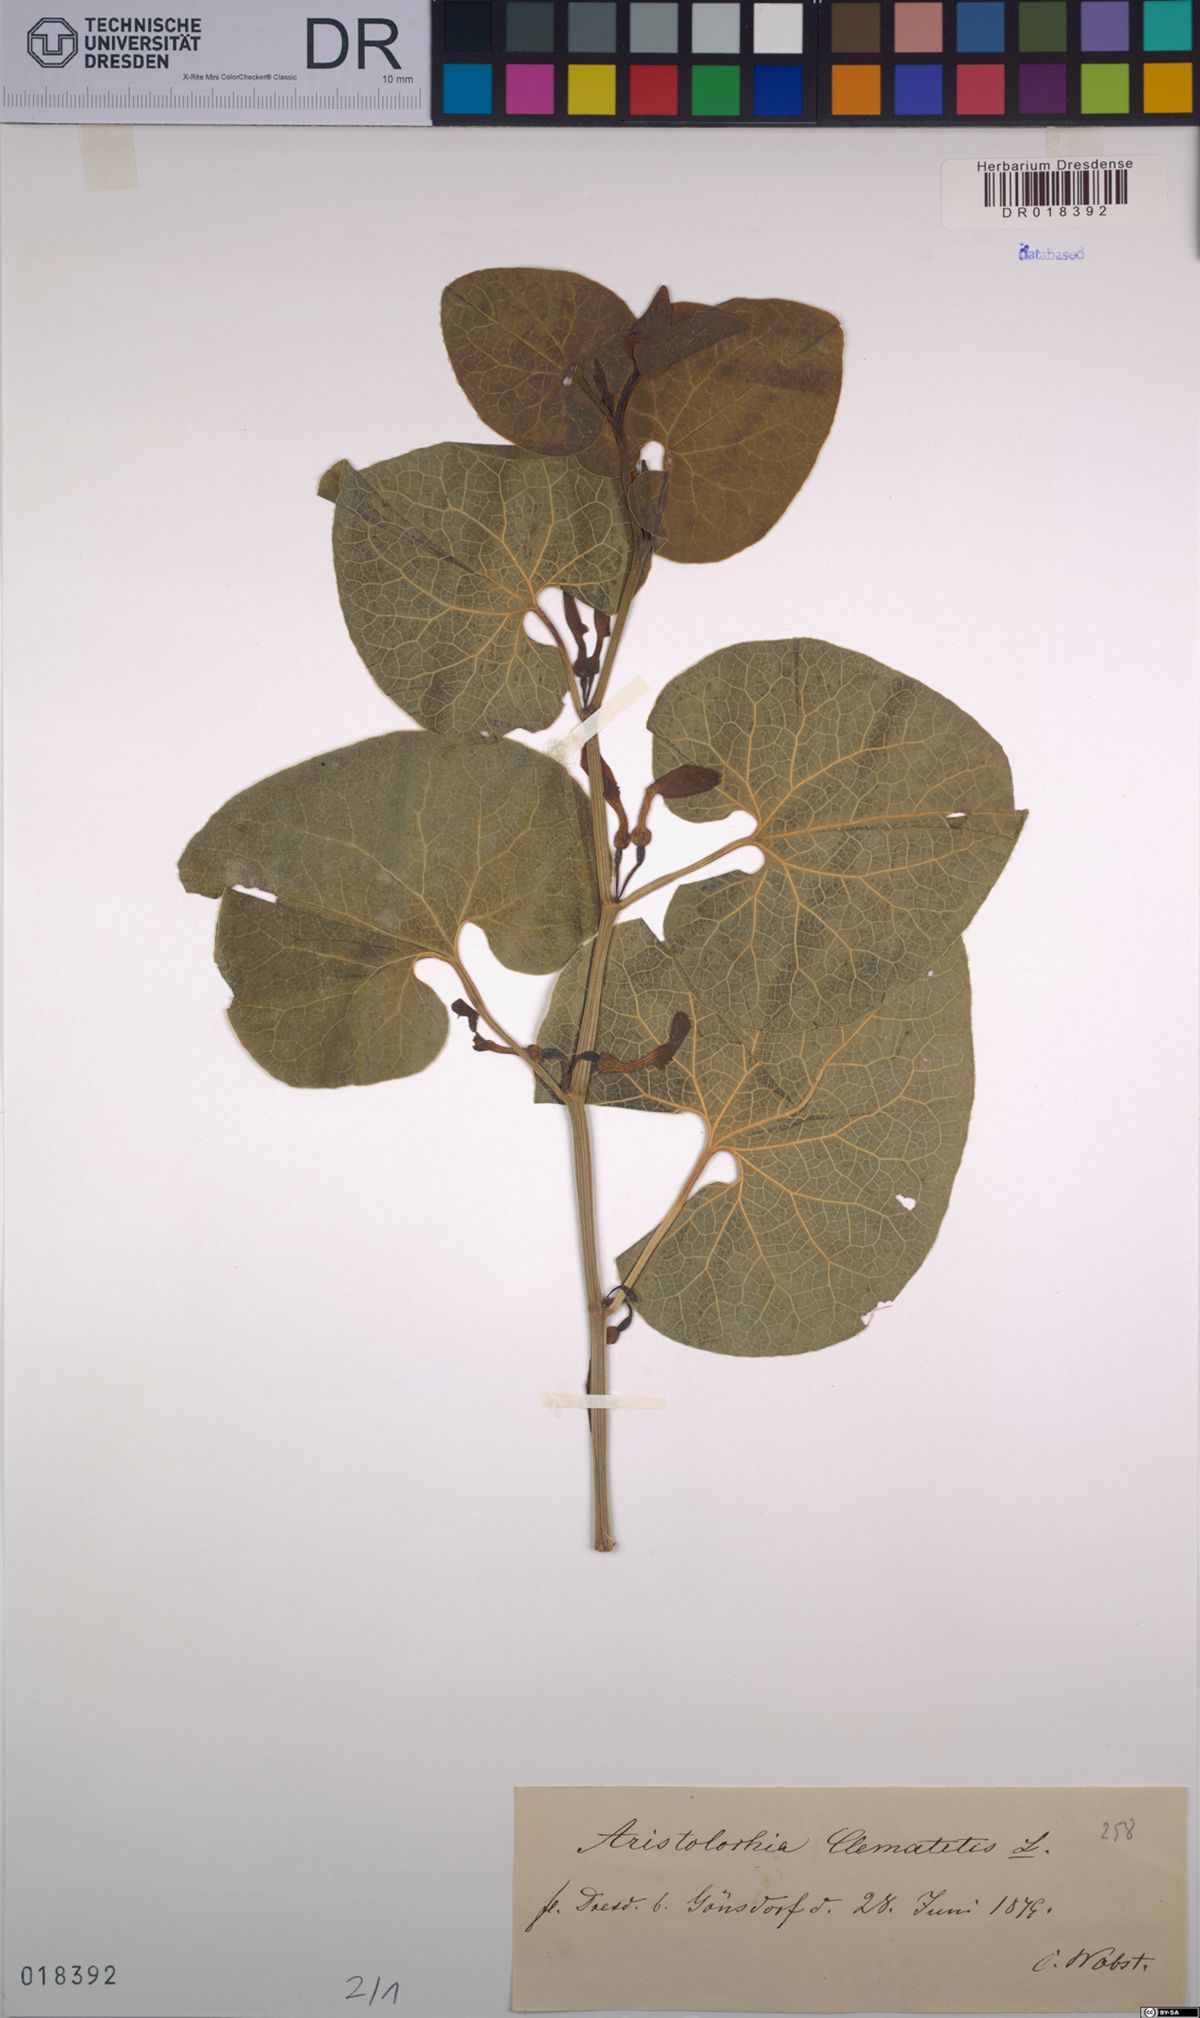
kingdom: Plantae
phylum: Tracheophyta
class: Magnoliopsida
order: Piperales
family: Aristolochiaceae
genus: Aristolochia
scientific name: Aristolochia clematitis
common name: Birthwort
